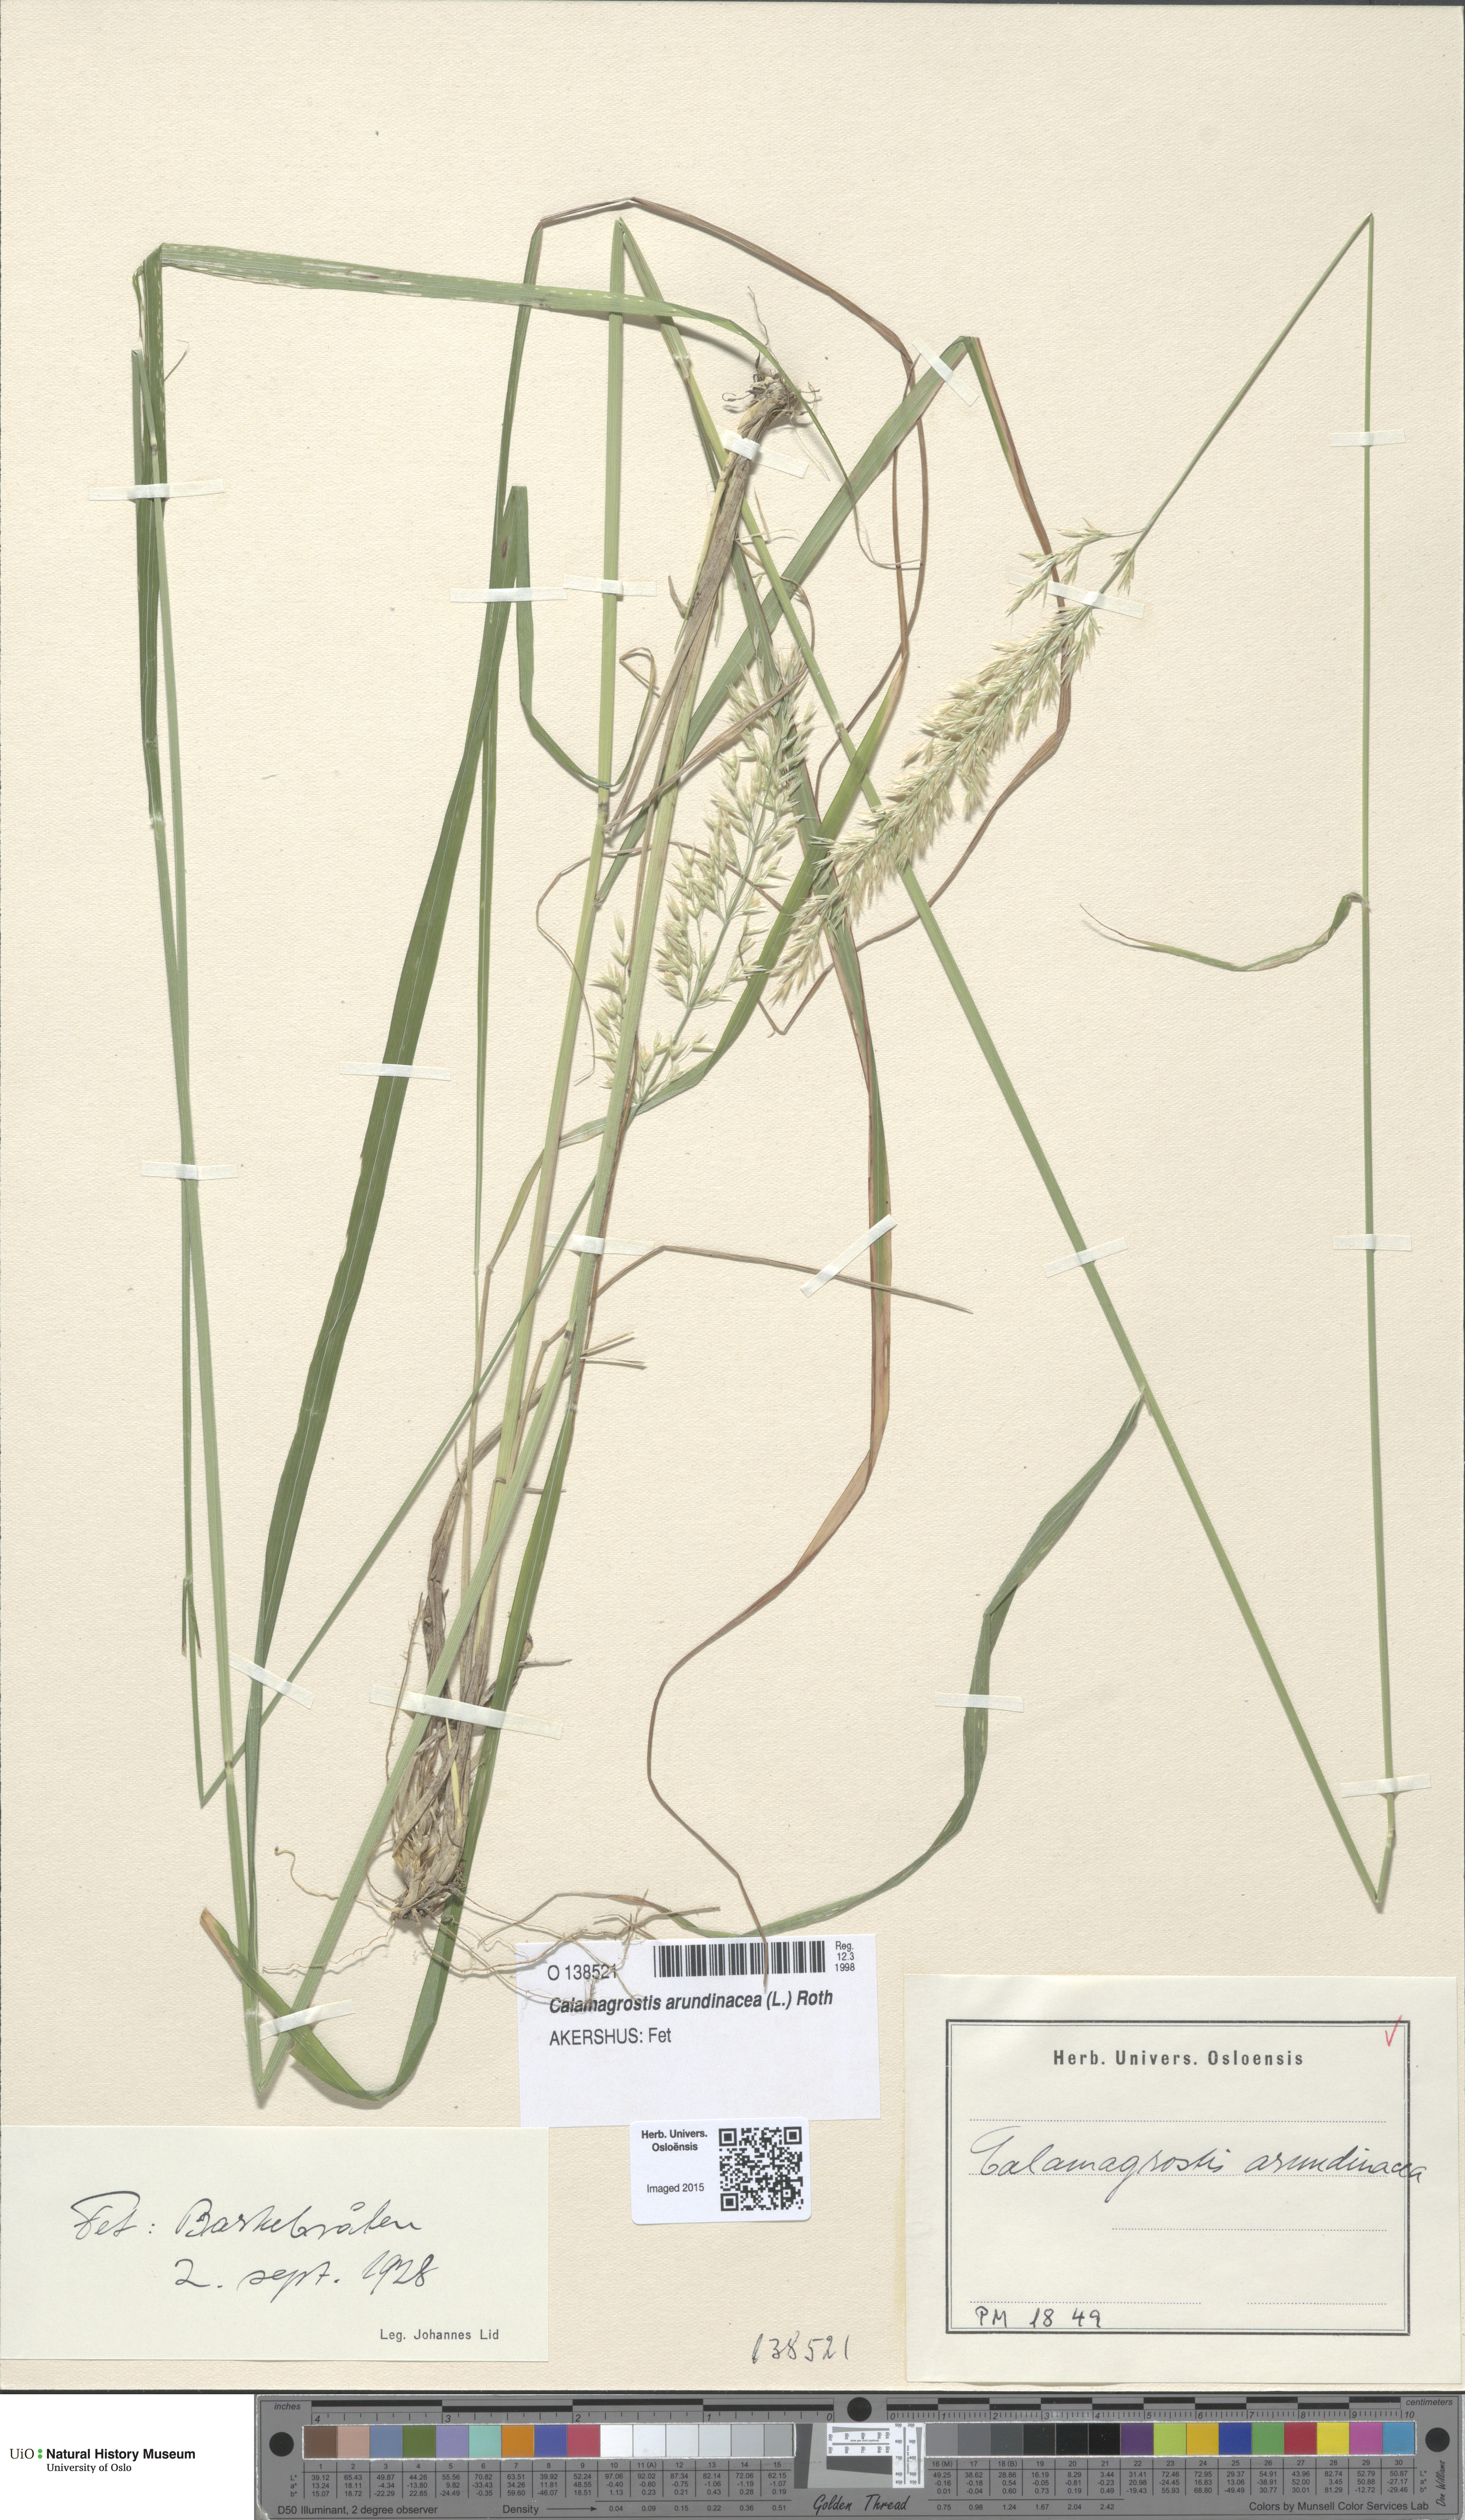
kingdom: Plantae
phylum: Tracheophyta
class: Liliopsida
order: Poales
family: Poaceae
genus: Calamagrostis
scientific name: Calamagrostis arundinacea
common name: Metskastik
